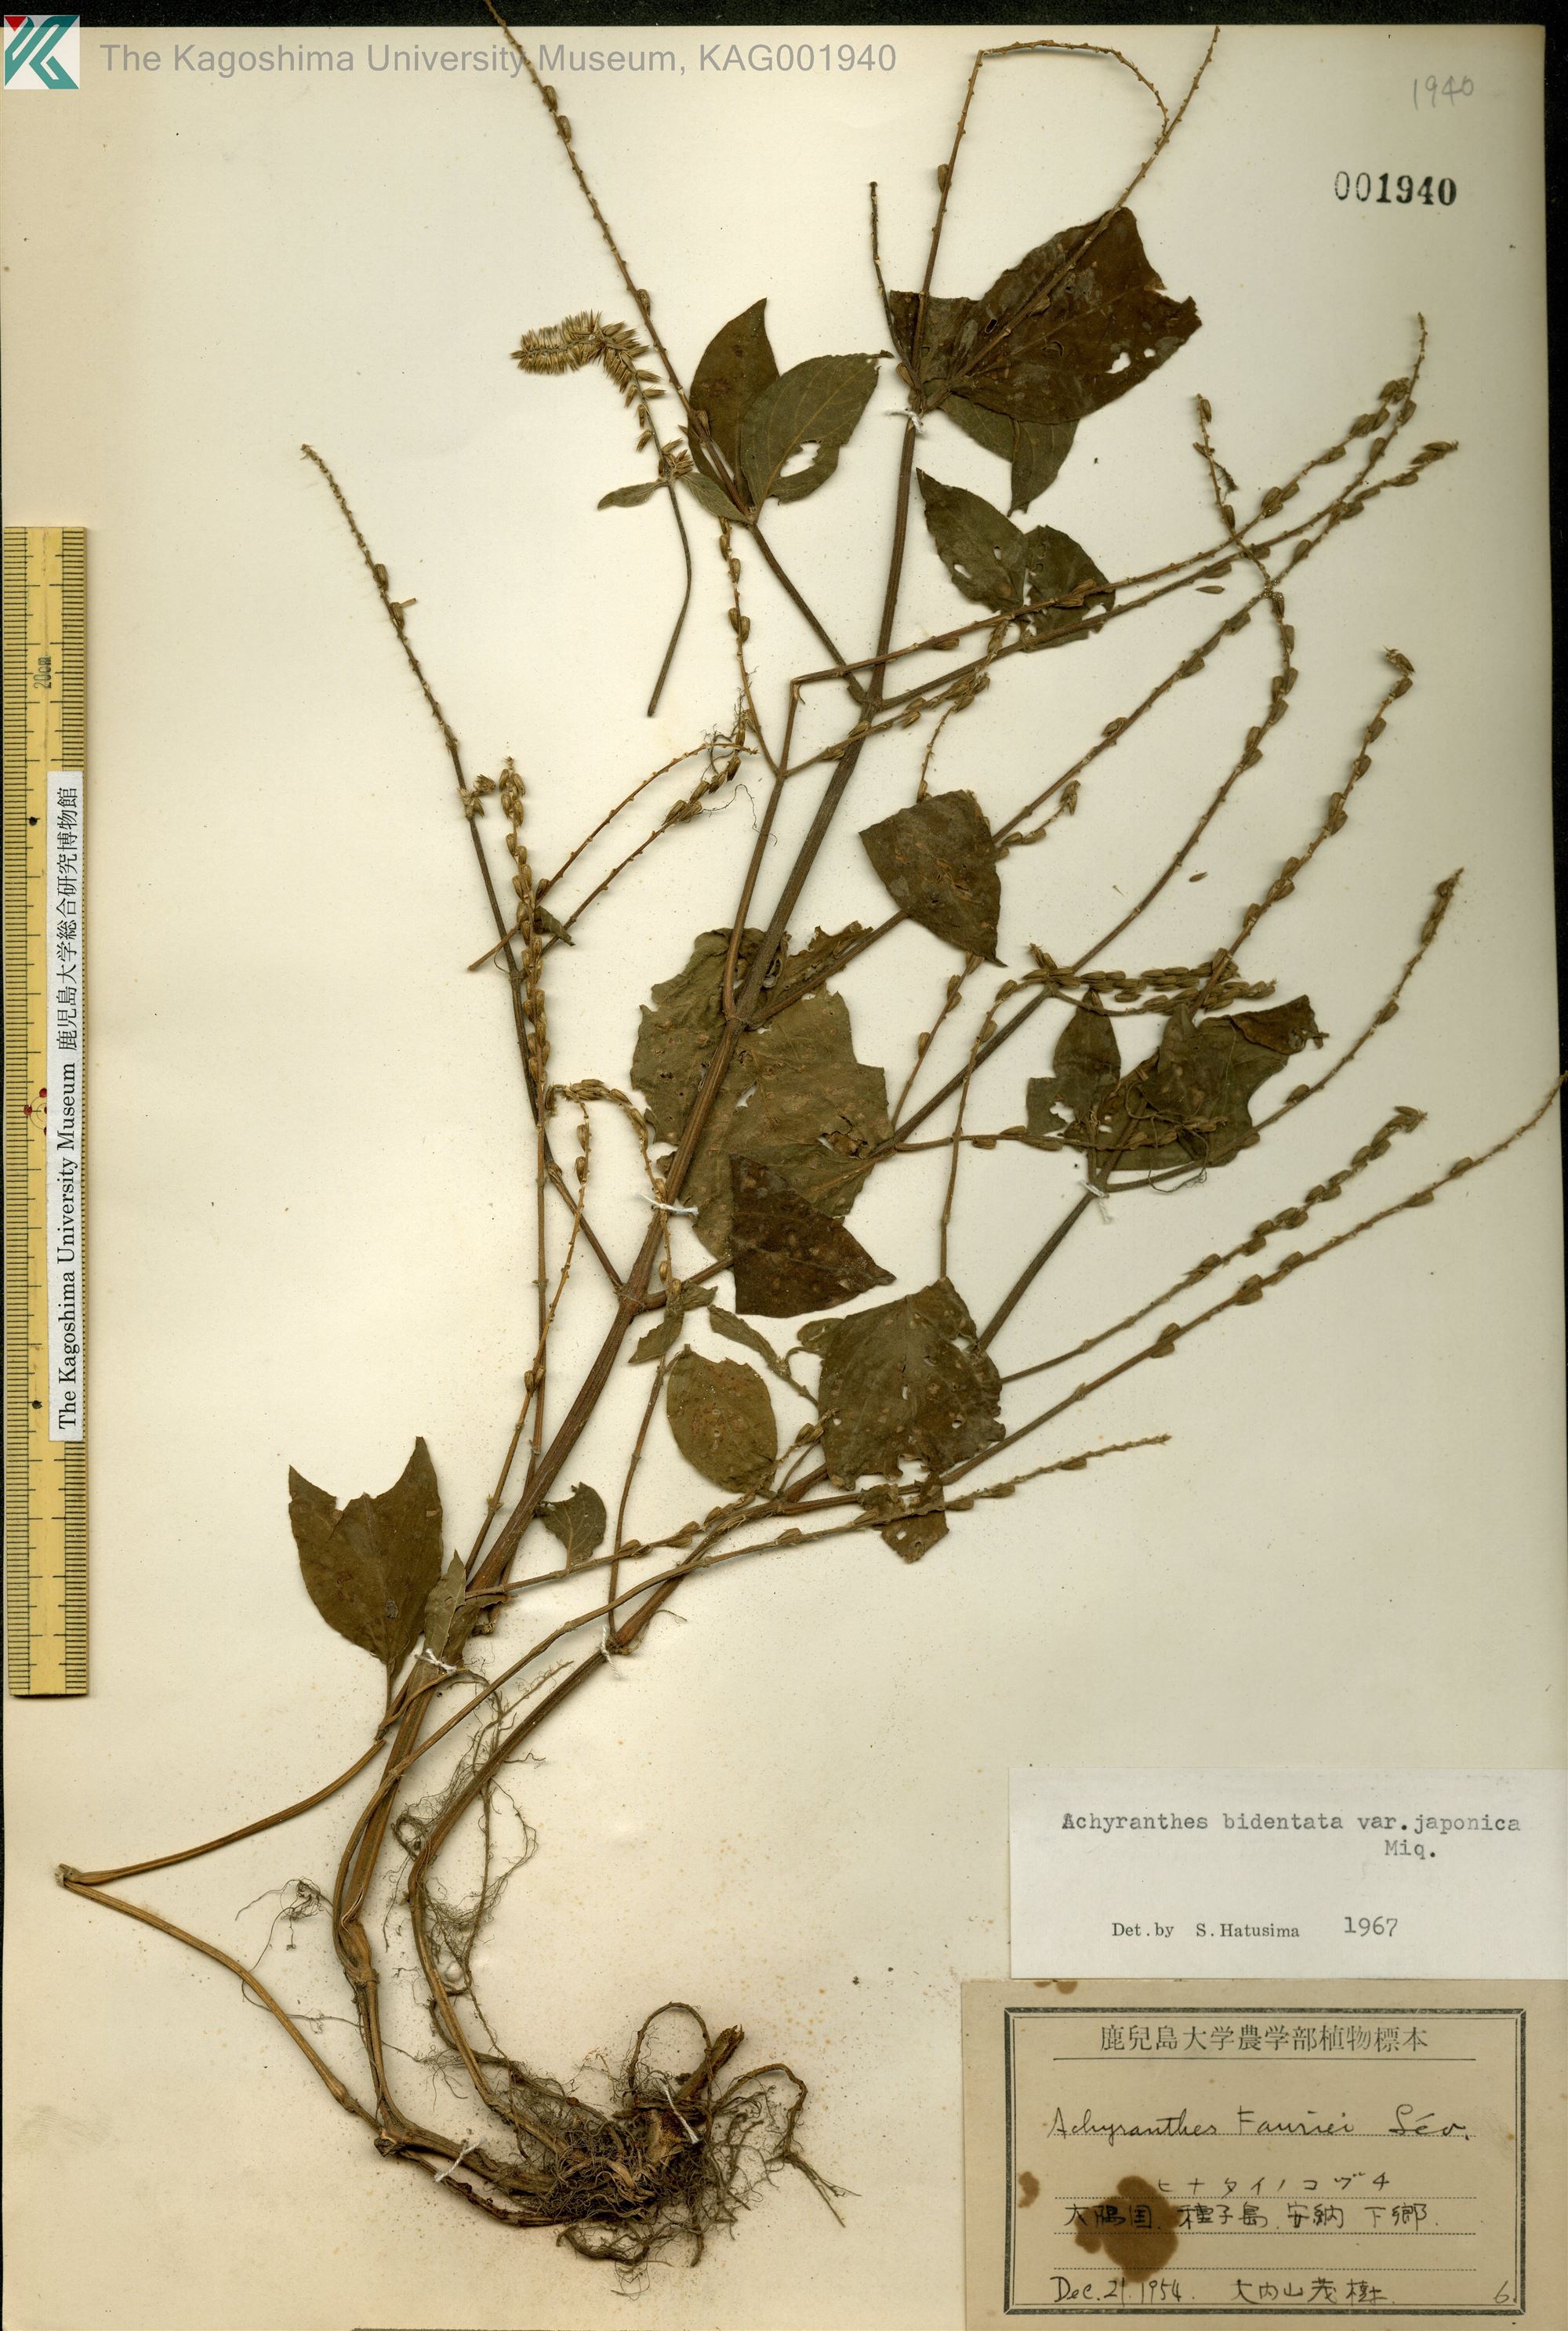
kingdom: Plantae
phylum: Tracheophyta
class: Magnoliopsida
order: Caryophyllales
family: Amaranthaceae
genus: Achyranthes
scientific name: Achyranthes bidentata
